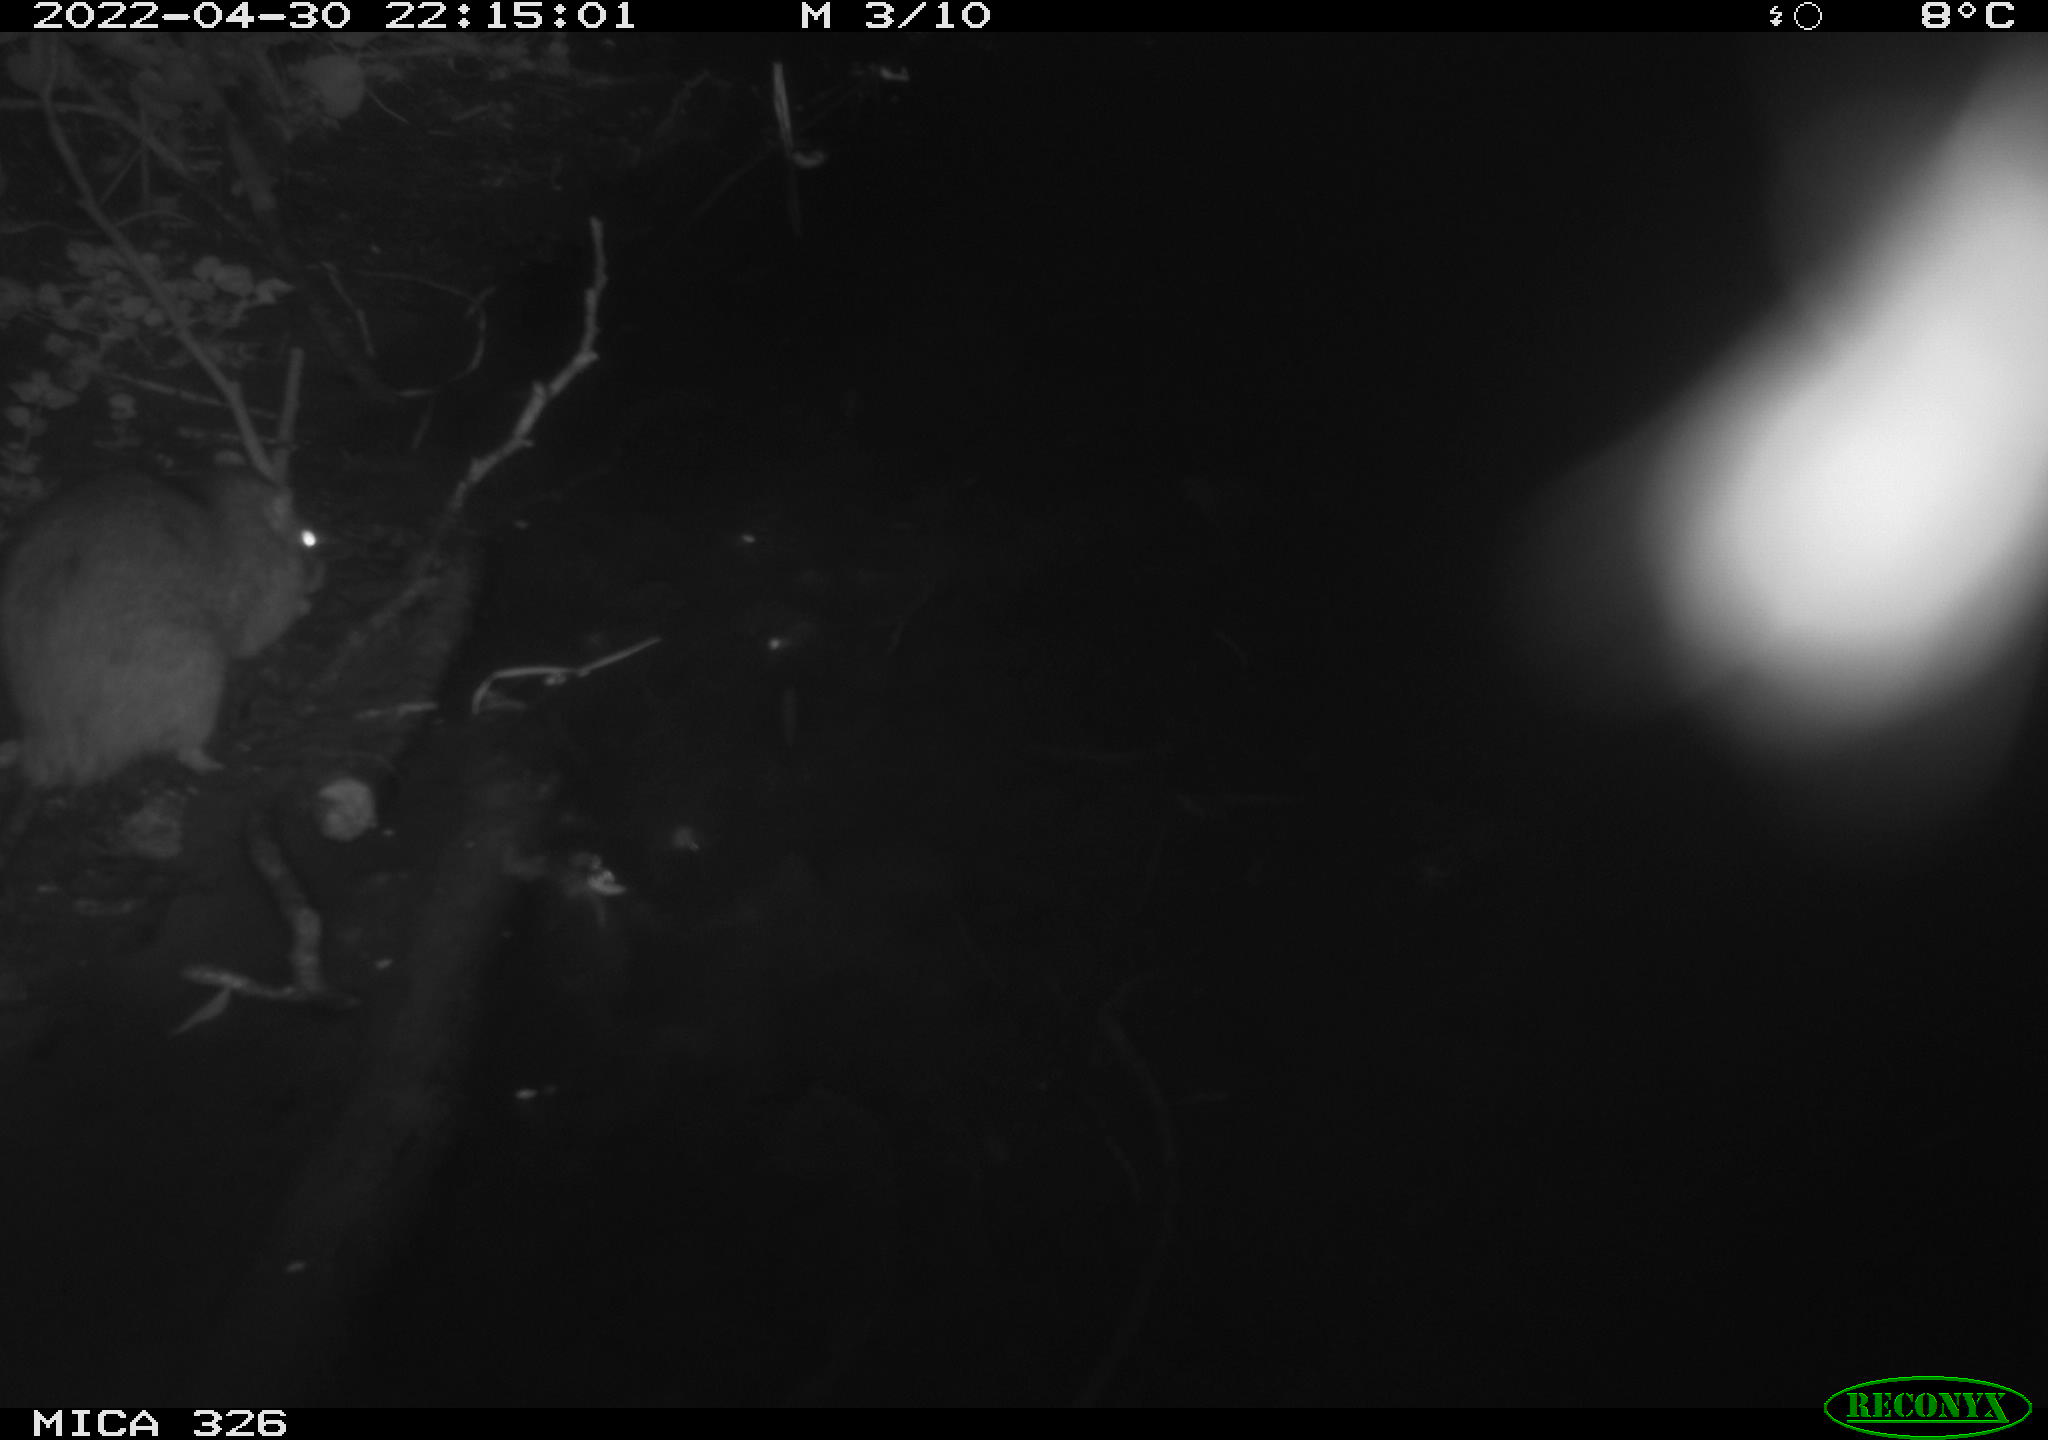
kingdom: Animalia
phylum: Chordata
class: Mammalia
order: Rodentia
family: Muridae
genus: Rattus
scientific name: Rattus norvegicus
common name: Brown rat
